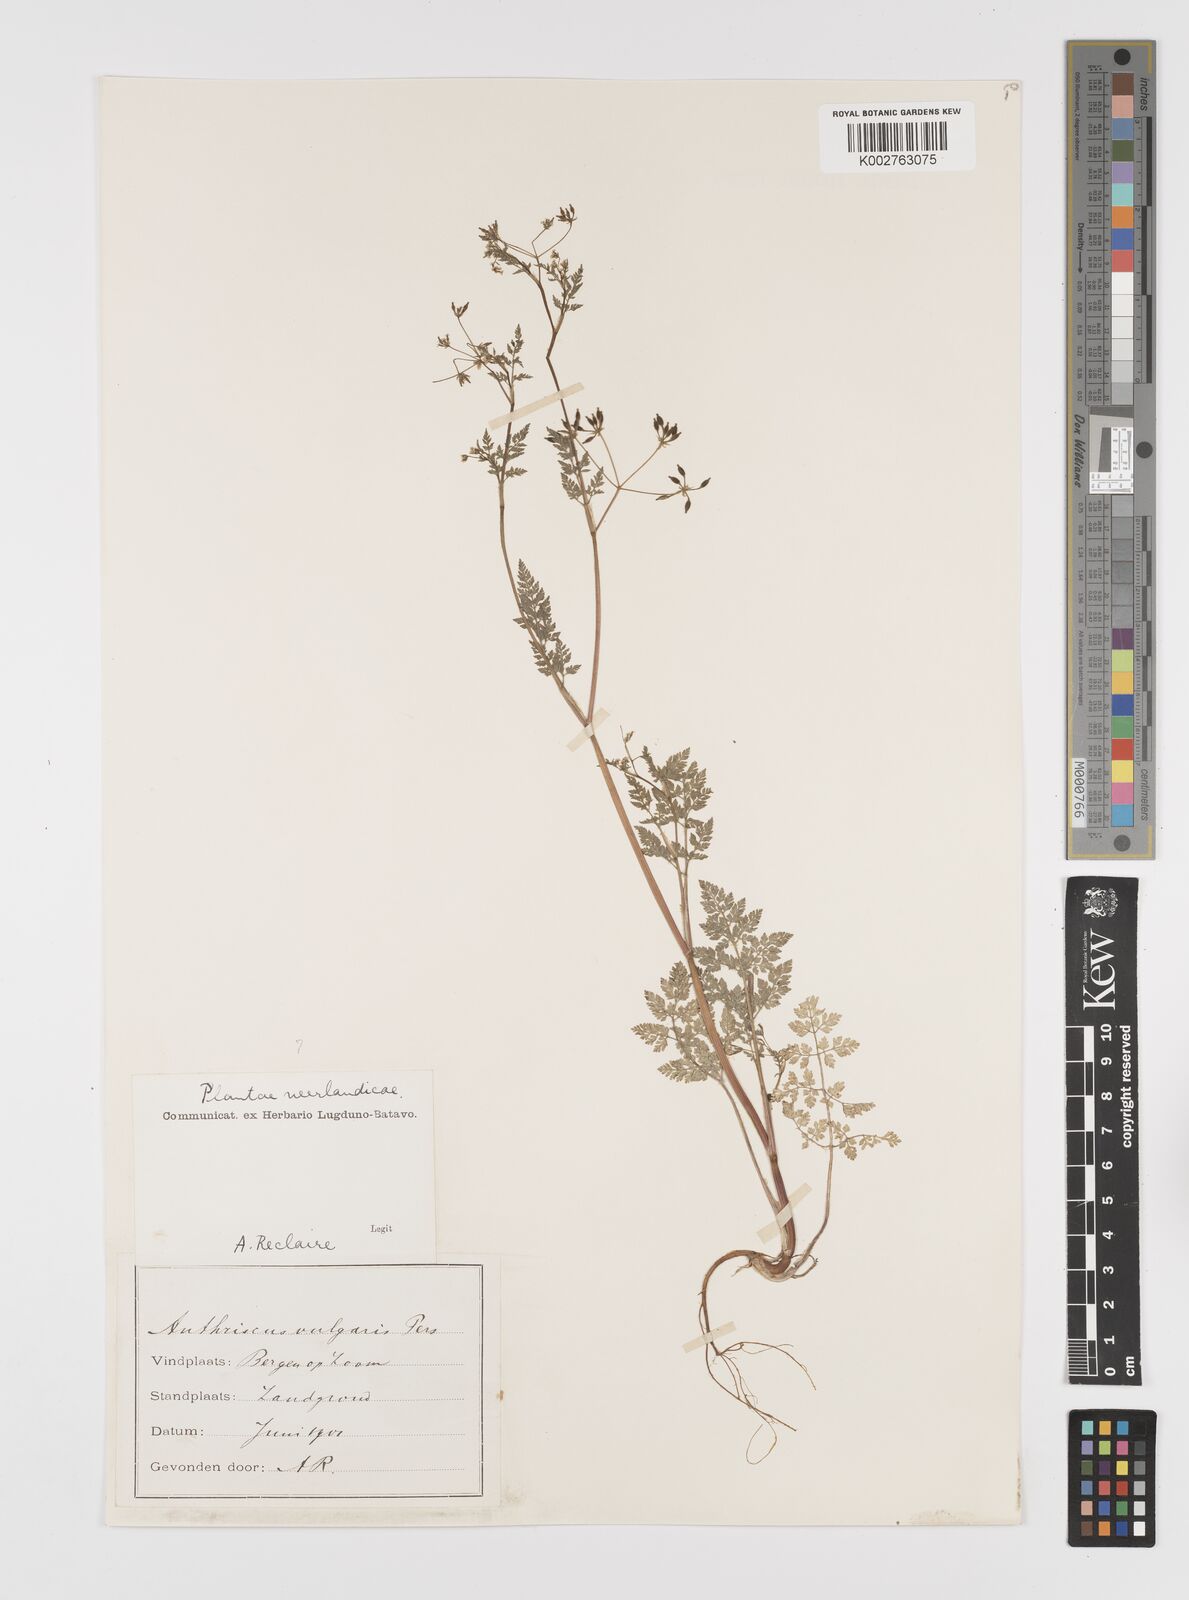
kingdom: Plantae
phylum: Tracheophyta
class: Magnoliopsida
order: Apiales
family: Apiaceae
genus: Anthriscus
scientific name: Anthriscus caucalis
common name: Bur chervil
